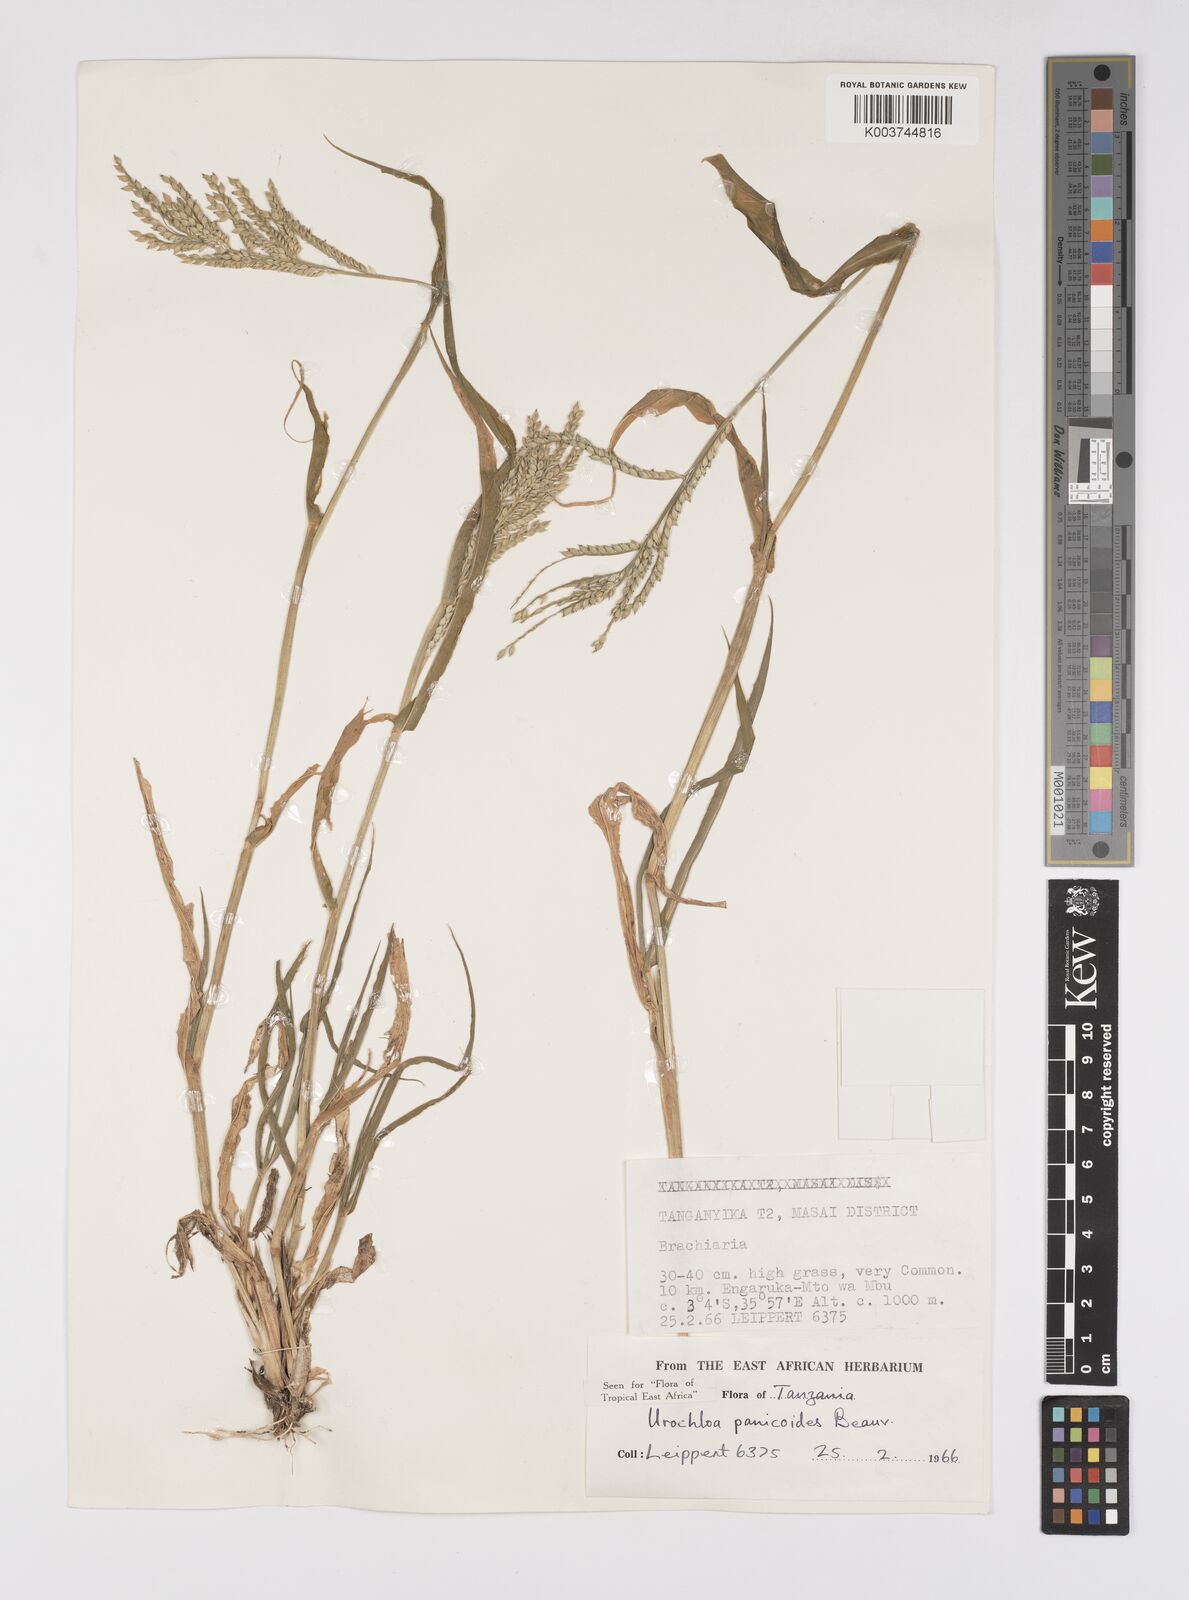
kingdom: Plantae
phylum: Tracheophyta
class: Liliopsida
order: Poales
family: Poaceae
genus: Urochloa
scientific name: Urochloa panicoides
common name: Sharp-flowered signal-grass
